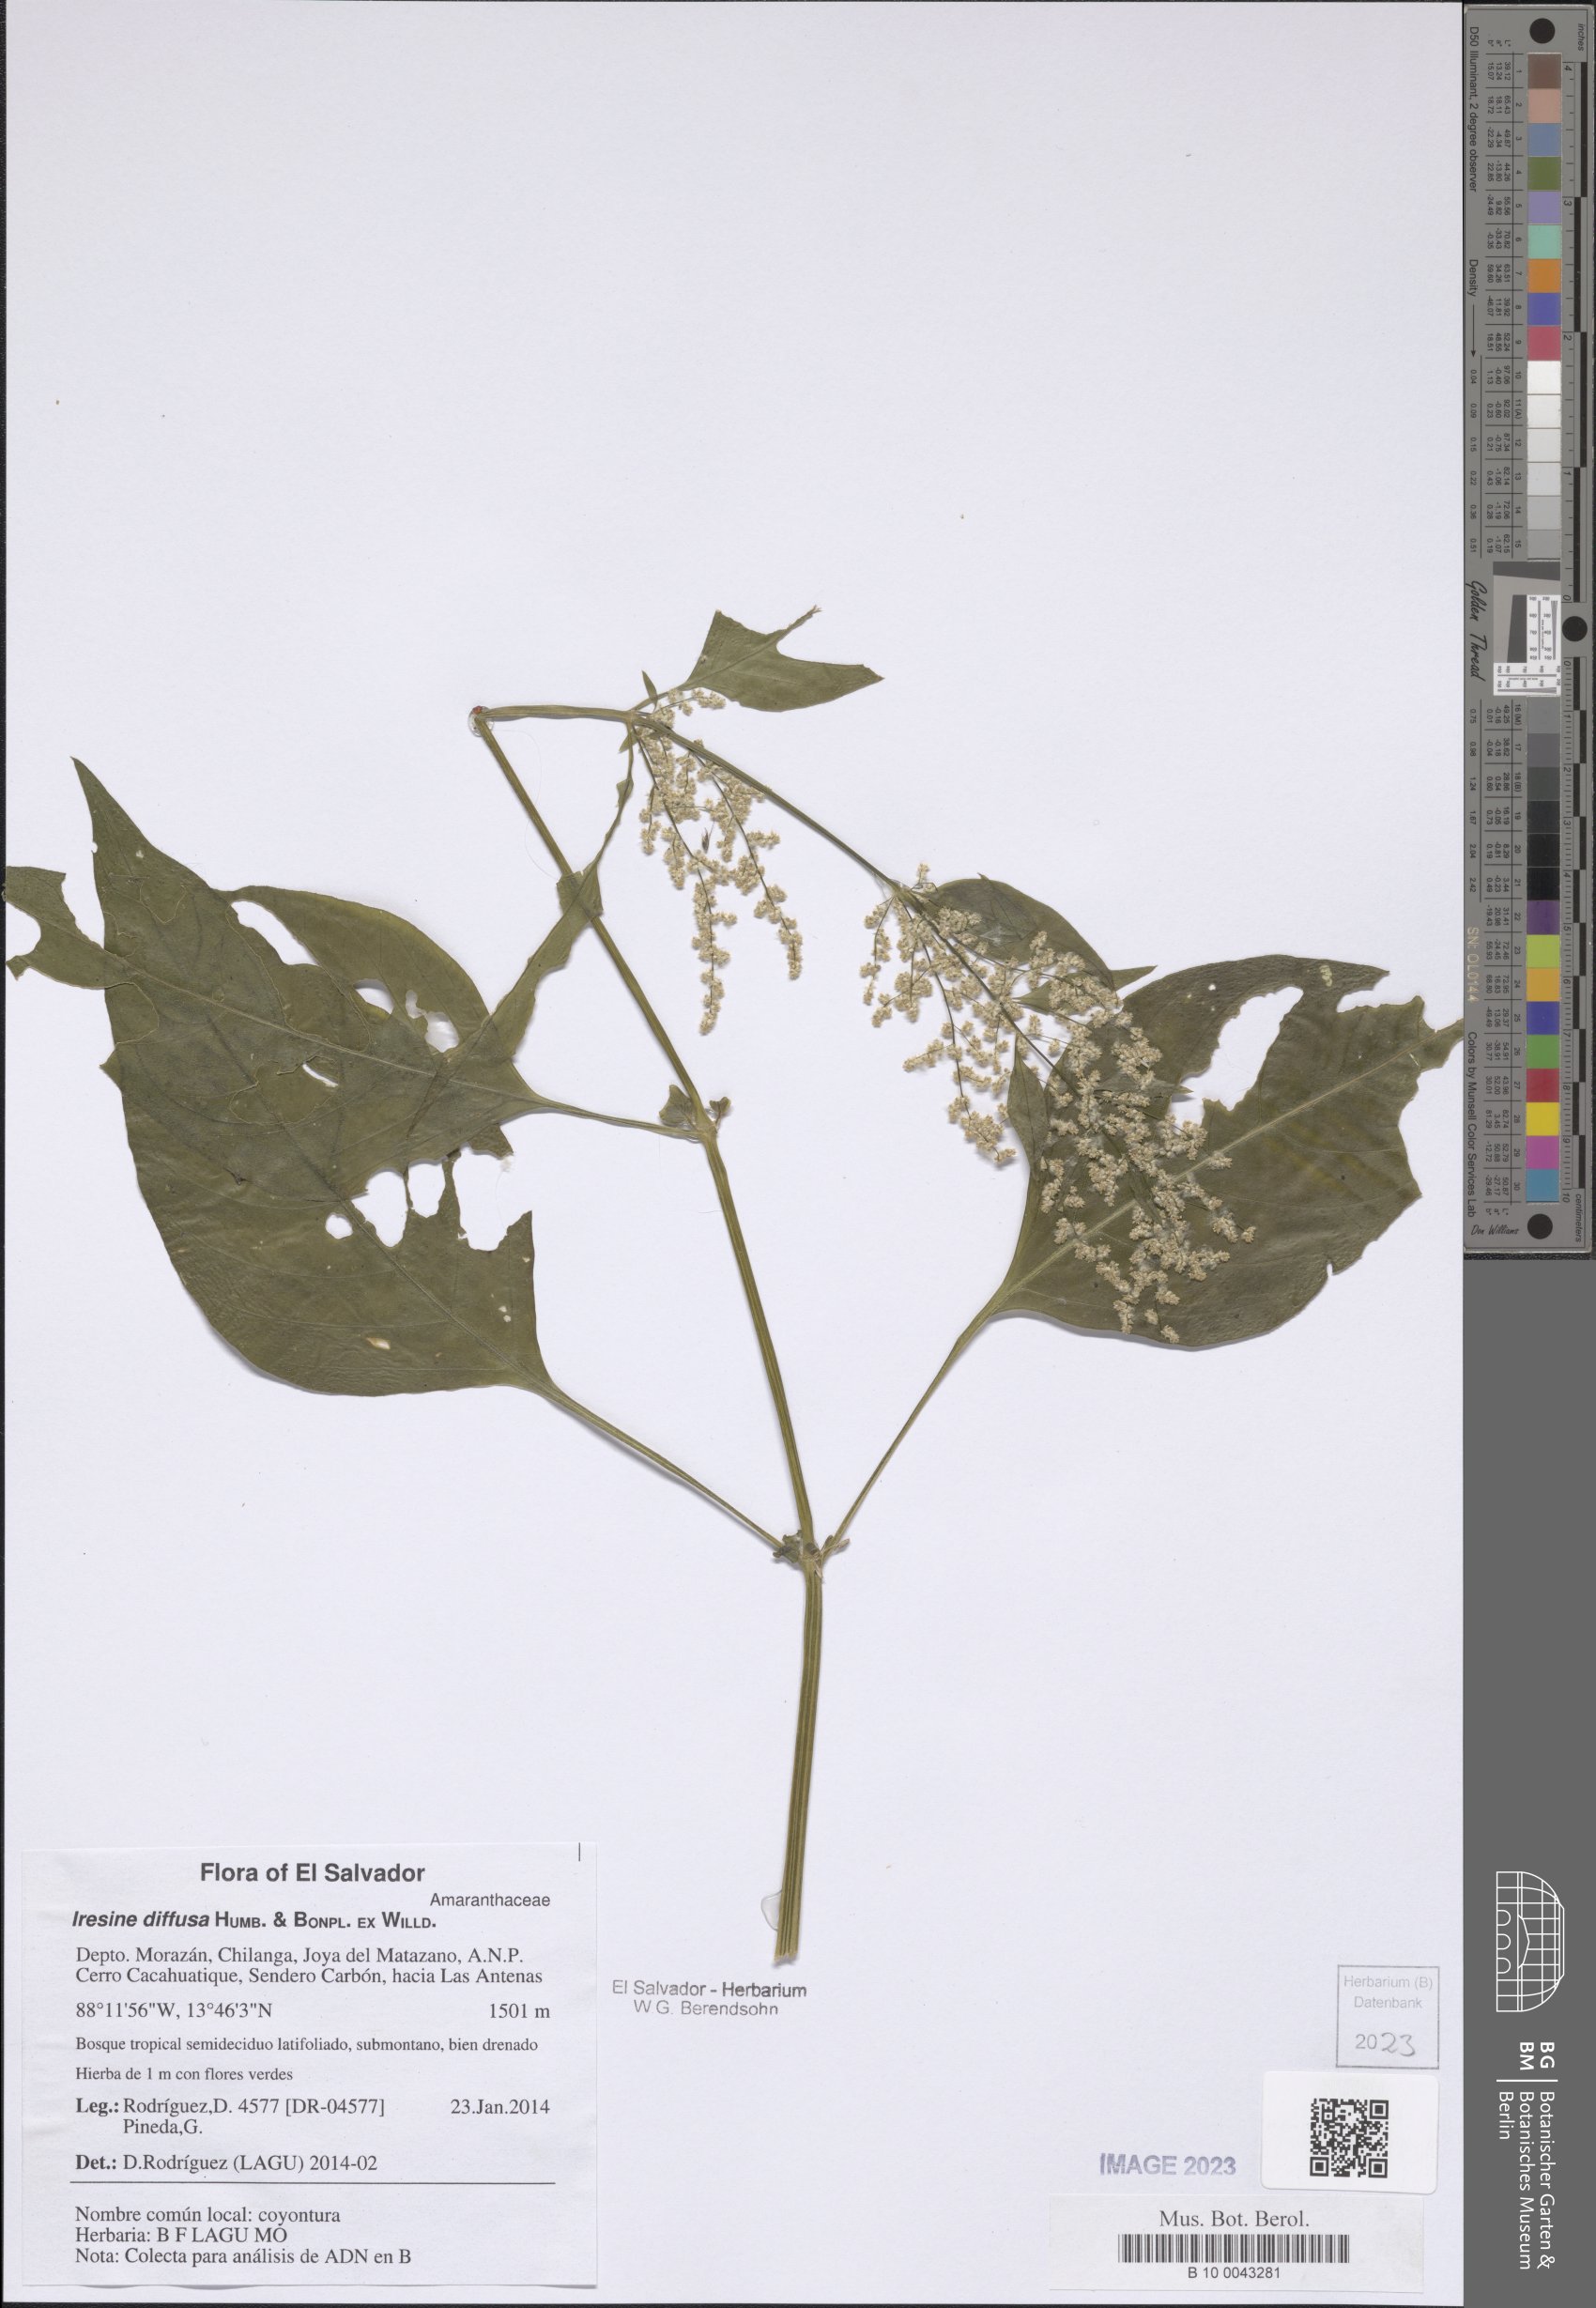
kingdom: Plantae
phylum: Tracheophyta
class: Magnoliopsida
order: Caryophyllales
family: Amaranthaceae
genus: Iresine
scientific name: Iresine diffusa
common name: Juba's-bush
